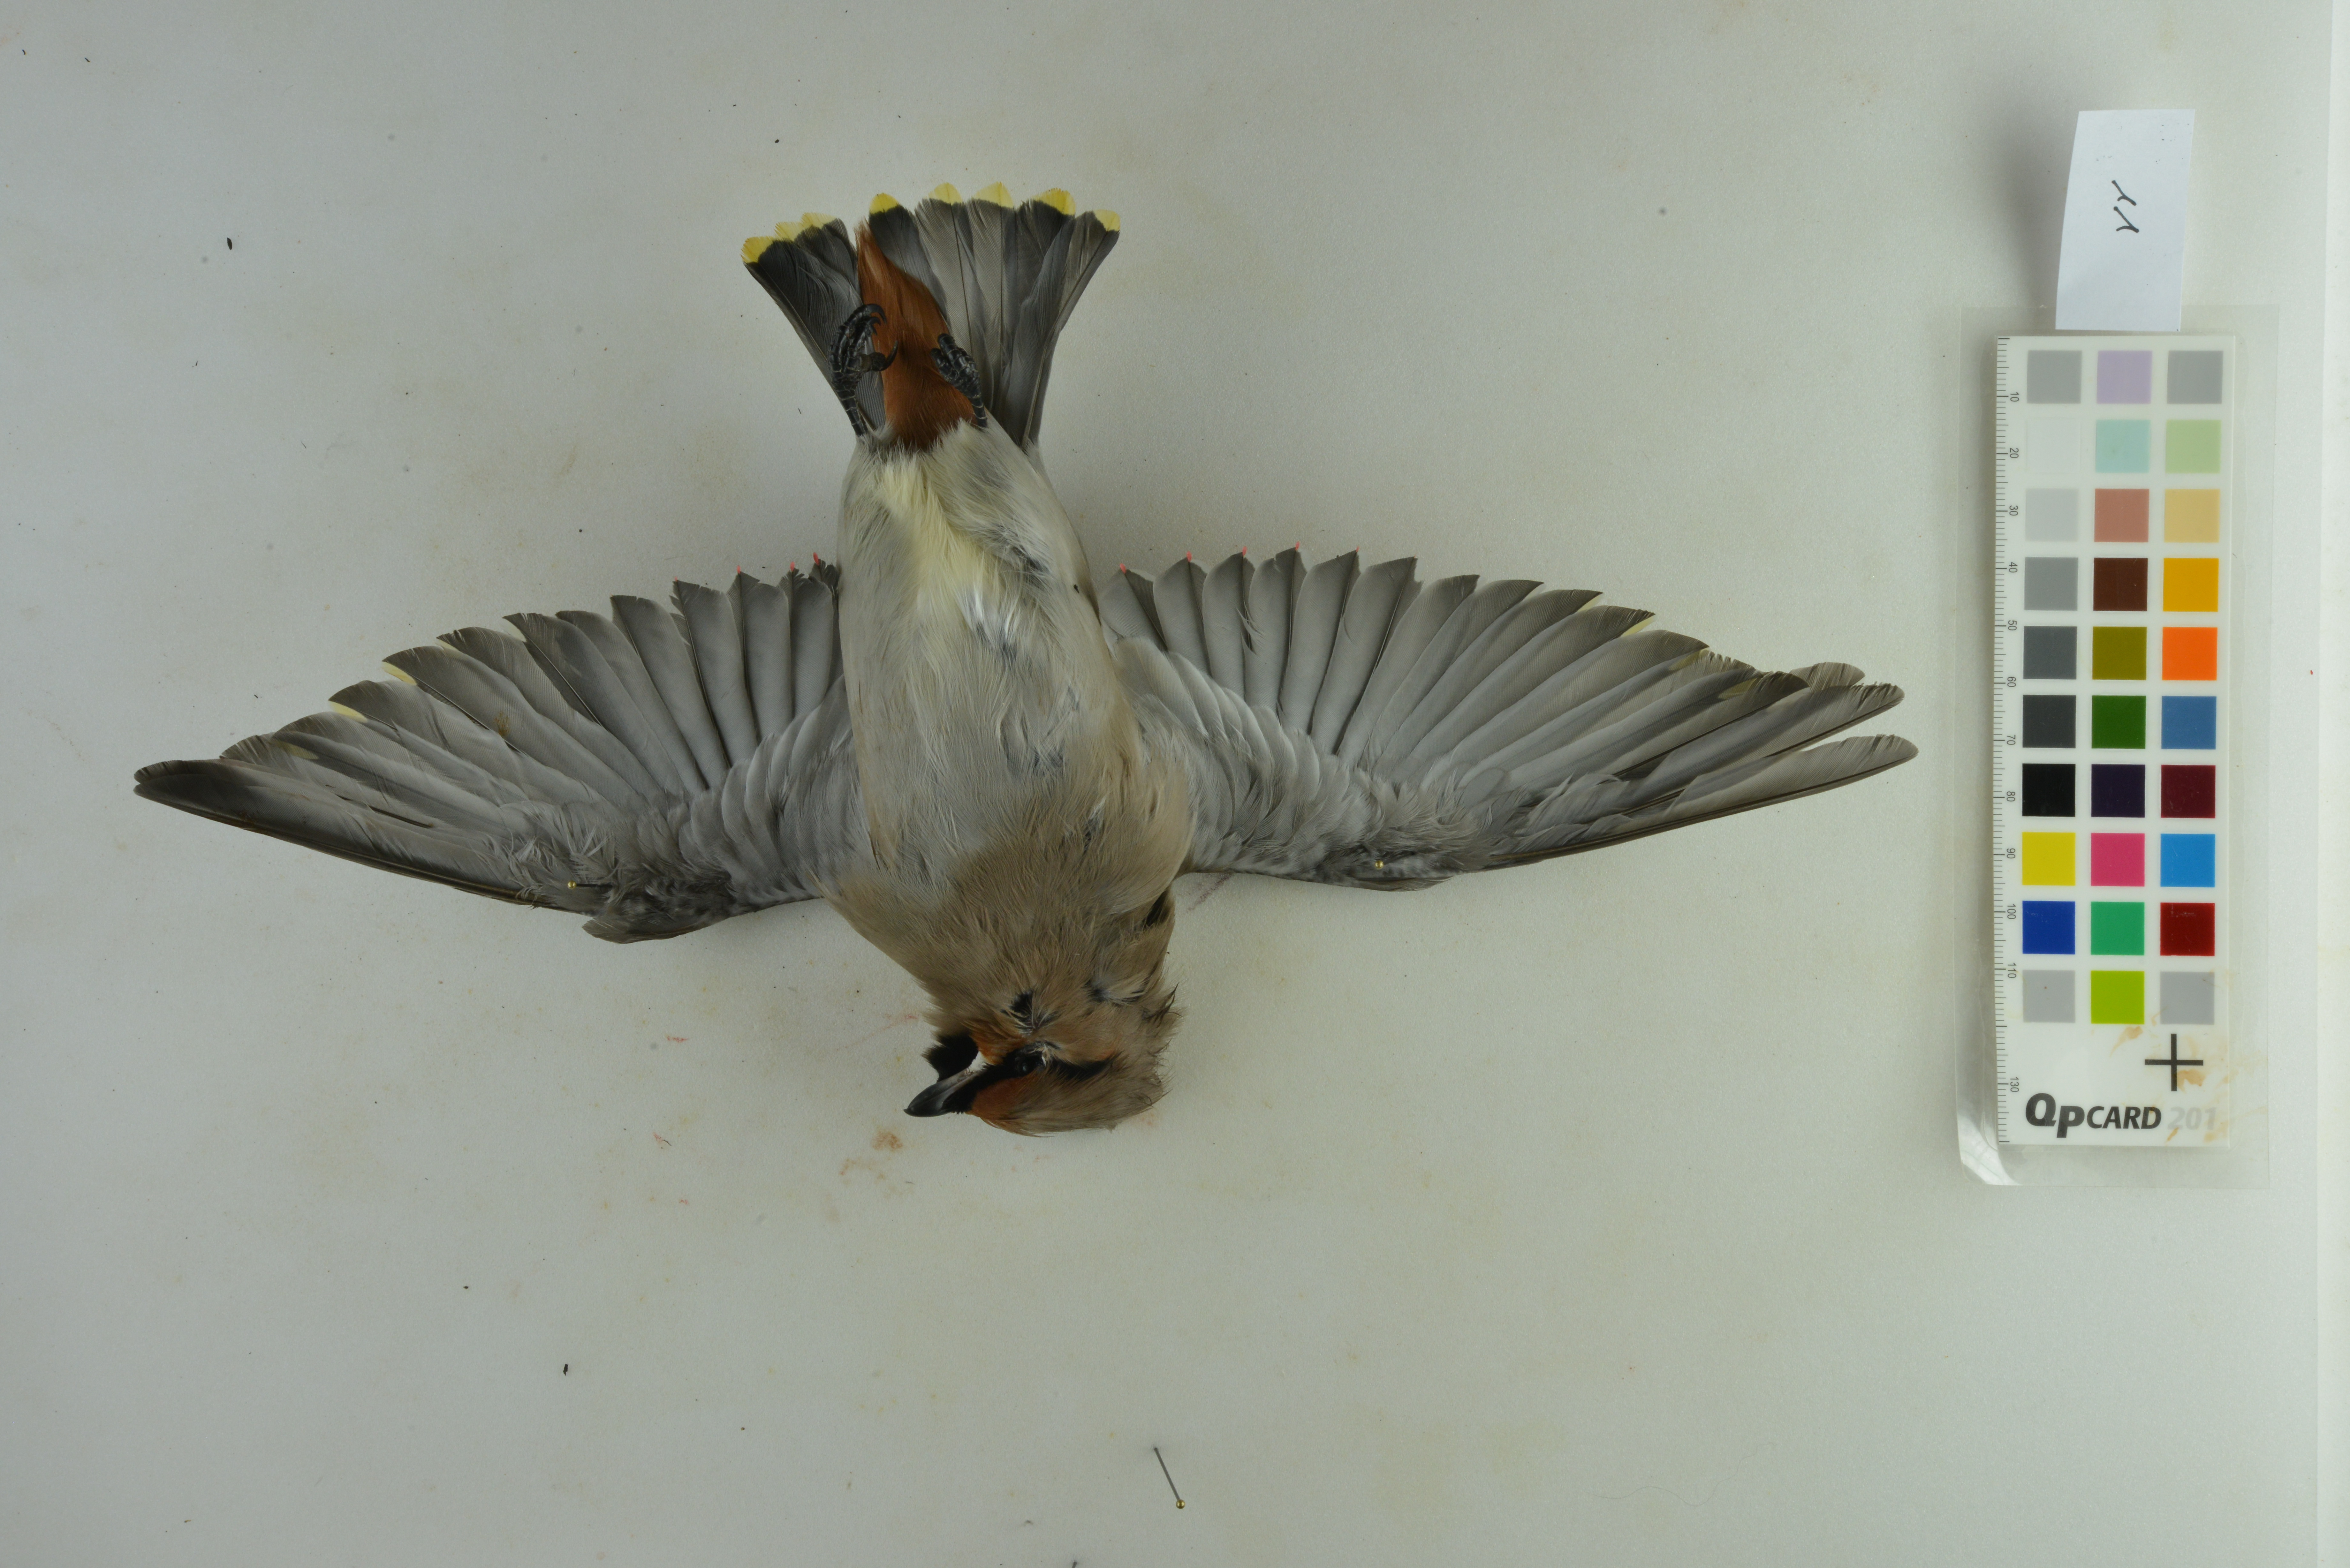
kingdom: Animalia
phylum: Chordata
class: Aves
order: Passeriformes
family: Bombycillidae
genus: Bombycilla
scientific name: Bombycilla garrulus
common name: Bohemian waxwing
